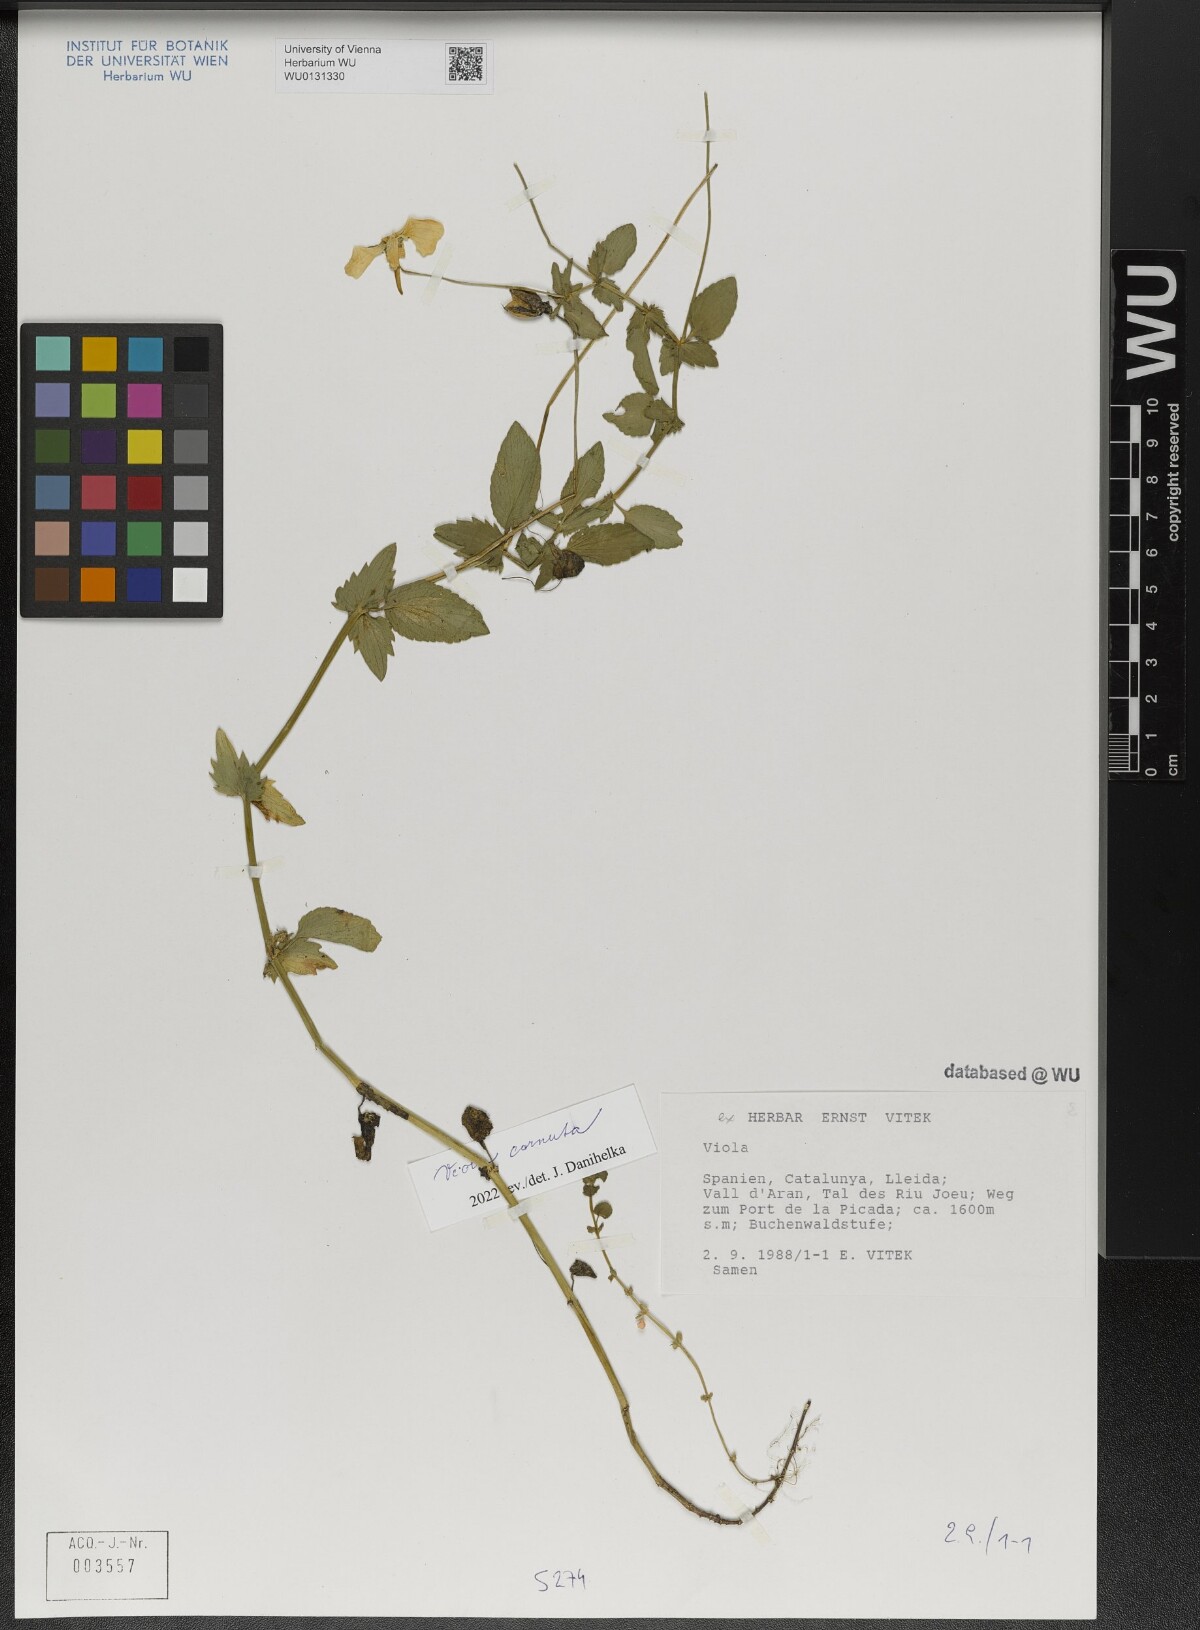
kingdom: Plantae
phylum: Tracheophyta
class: Magnoliopsida
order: Malpighiales
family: Violaceae
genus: Viola
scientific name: Viola cornuta
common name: Horned pansy
